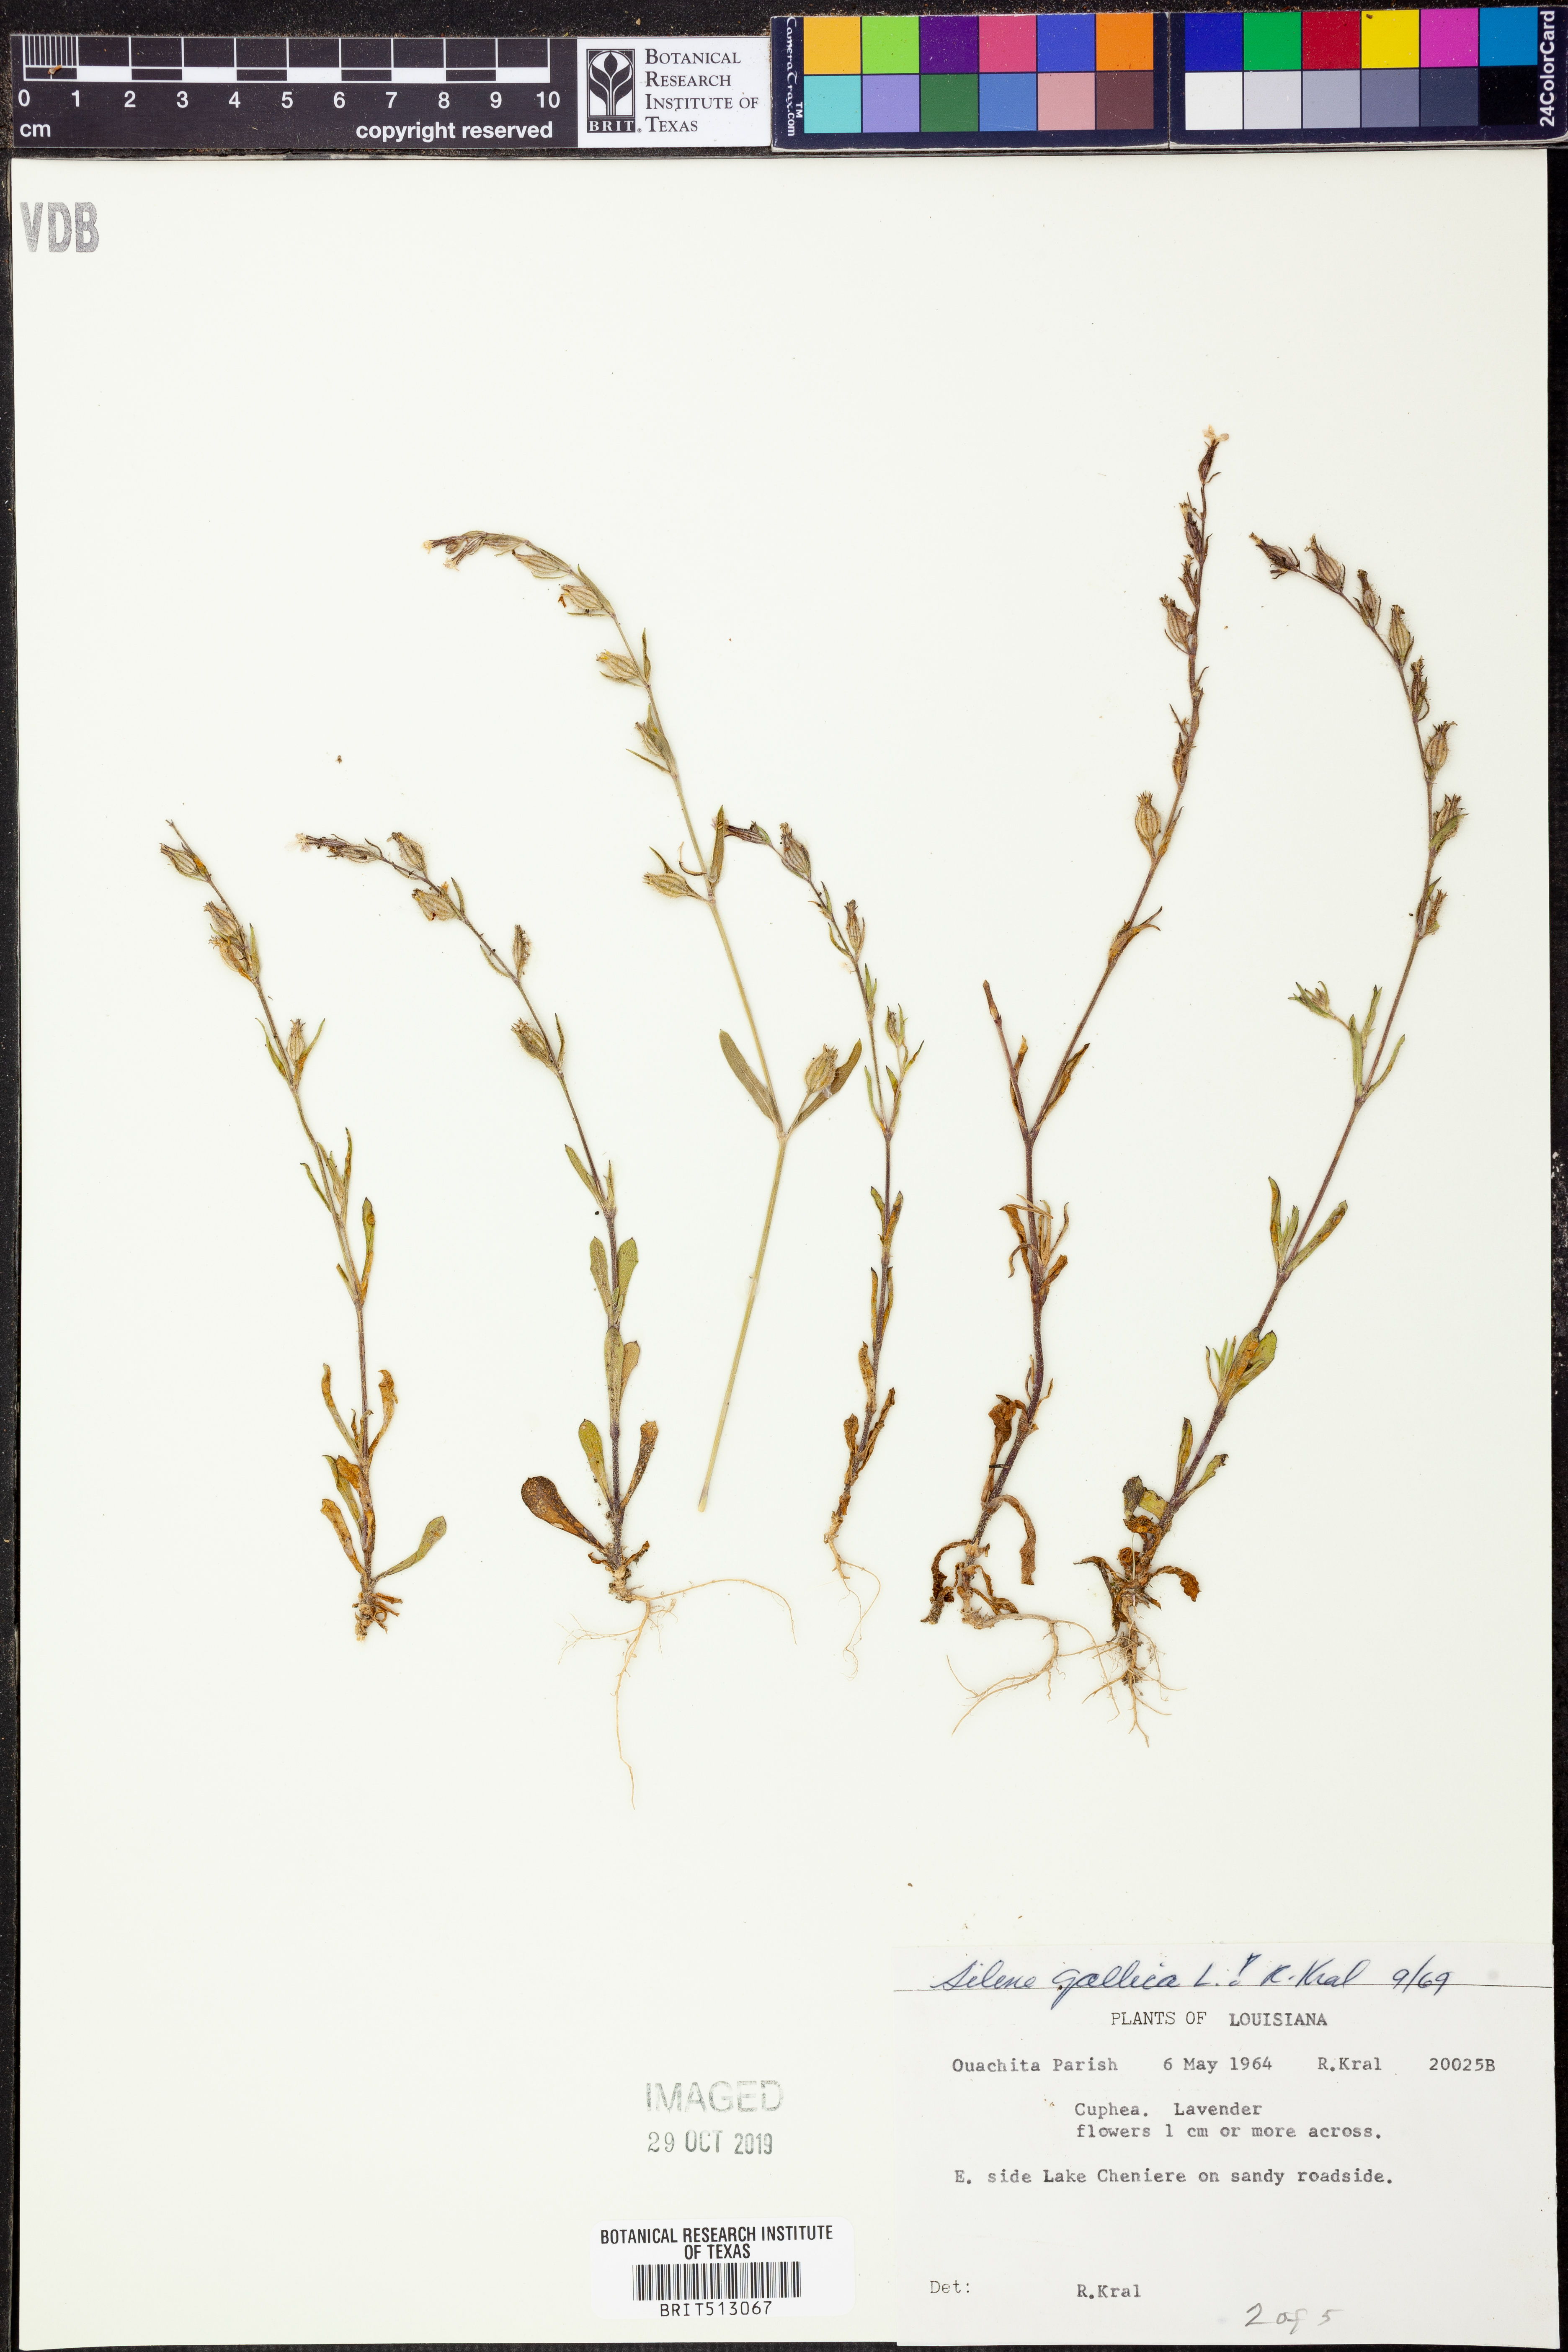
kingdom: Plantae
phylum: Tracheophyta
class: Magnoliopsida
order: Caryophyllales
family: Caryophyllaceae
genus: Silene
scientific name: Silene gallica
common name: Small-flowered catchfly
